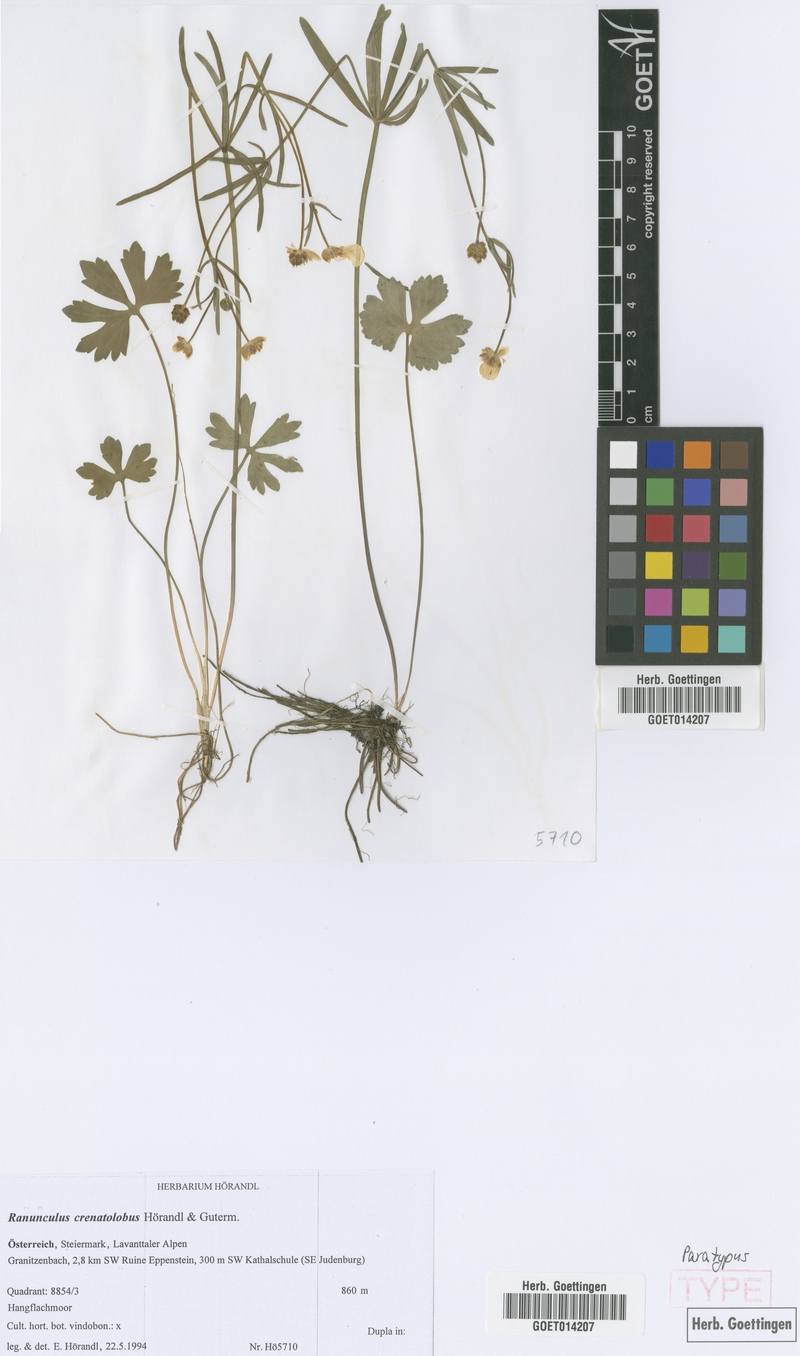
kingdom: Plantae
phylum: Tracheophyta
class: Magnoliopsida
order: Ranunculales
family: Ranunculaceae
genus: Ranunculus
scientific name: Ranunculus crenatolobus
